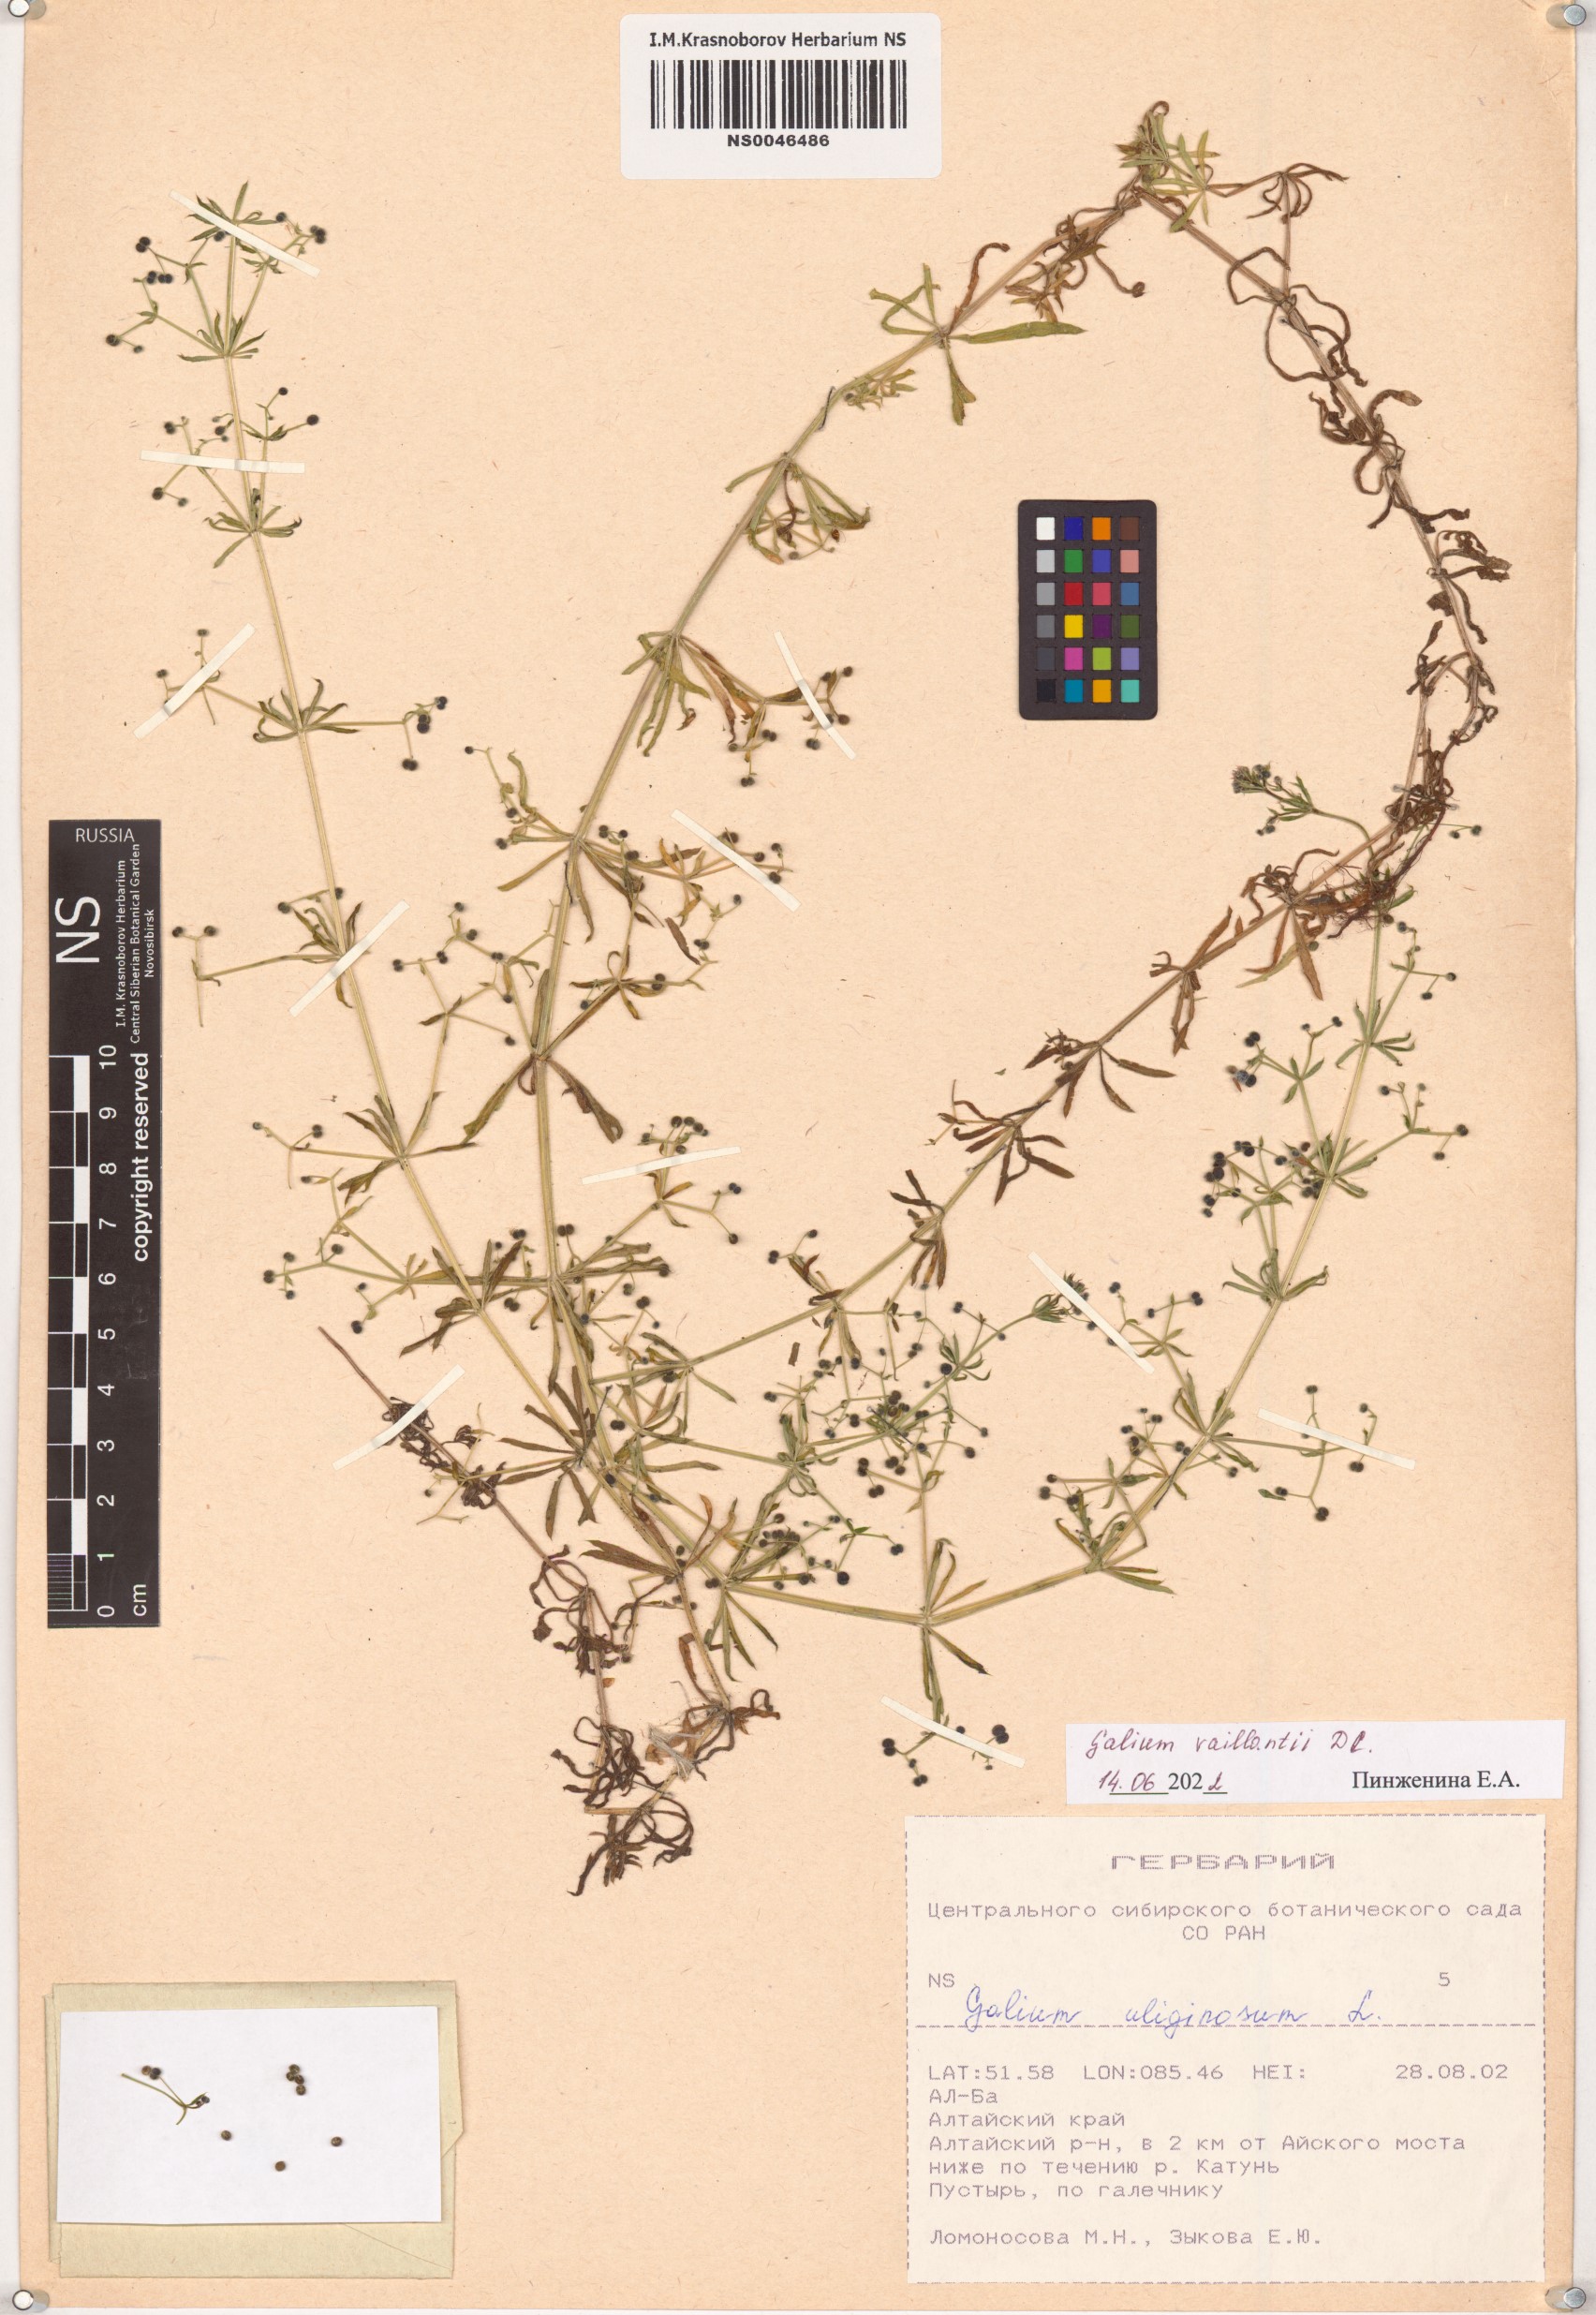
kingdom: Plantae
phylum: Tracheophyta
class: Magnoliopsida
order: Gentianales
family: Rubiaceae
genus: Galium
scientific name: Galium spurium
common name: False cleavers
